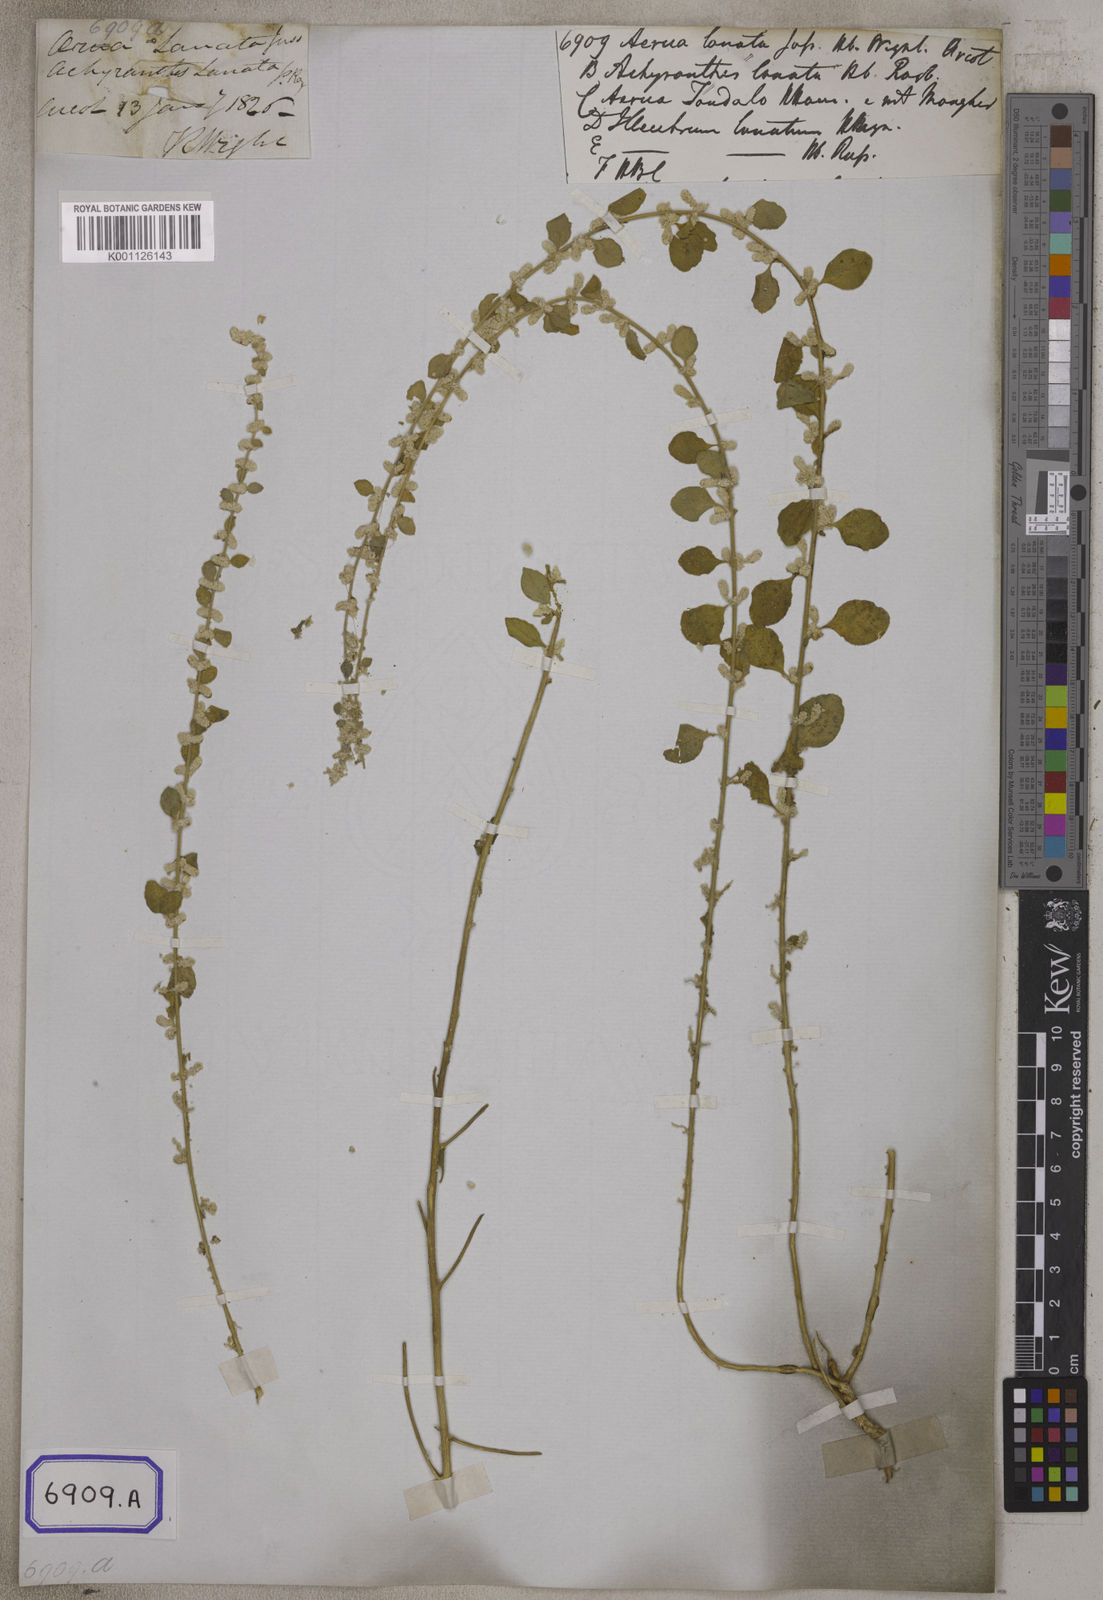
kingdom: Plantae
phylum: Tracheophyta
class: Magnoliopsida
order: Caryophyllales
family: Amaranthaceae
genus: Aerva
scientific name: Aerva
